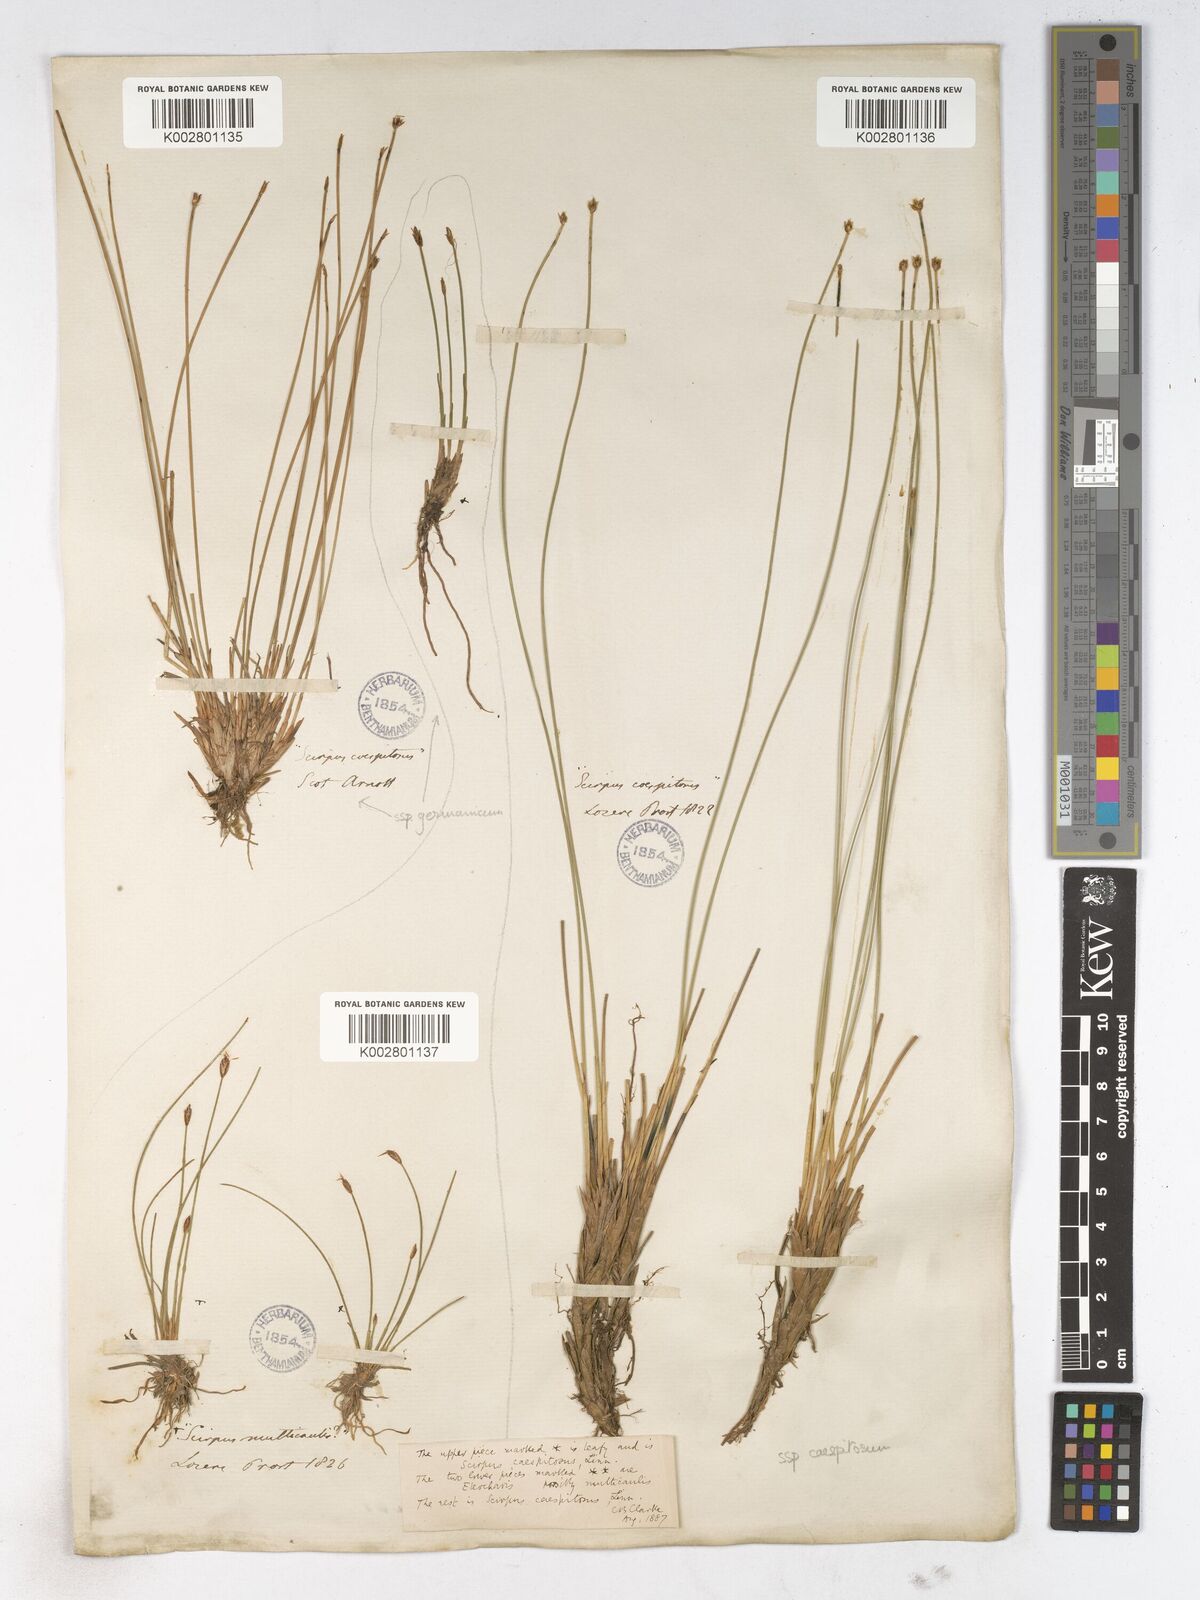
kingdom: Plantae
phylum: Tracheophyta
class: Liliopsida
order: Poales
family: Cyperaceae
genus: Trichophorum
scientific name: Trichophorum cespitosum
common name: Cespitose bulrush
